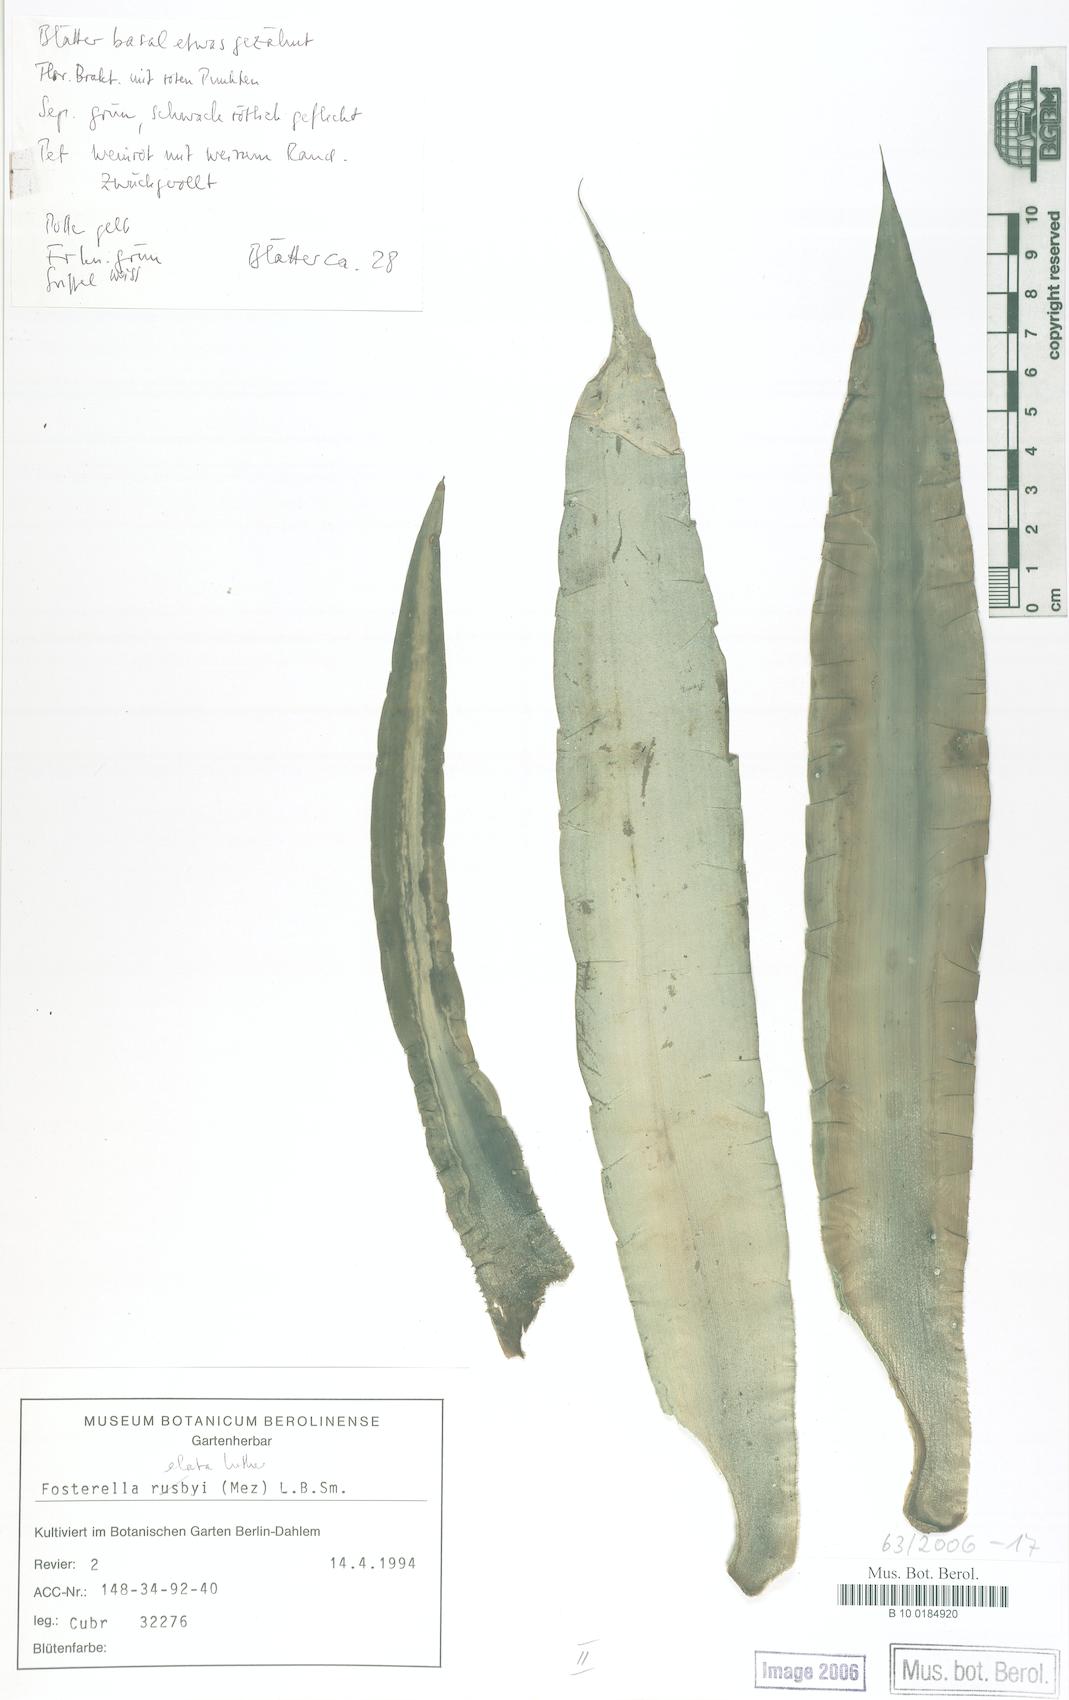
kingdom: Plantae
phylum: Tracheophyta
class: Liliopsida
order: Poales
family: Bromeliaceae
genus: Fosterella
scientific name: Fosterella rusbyi
